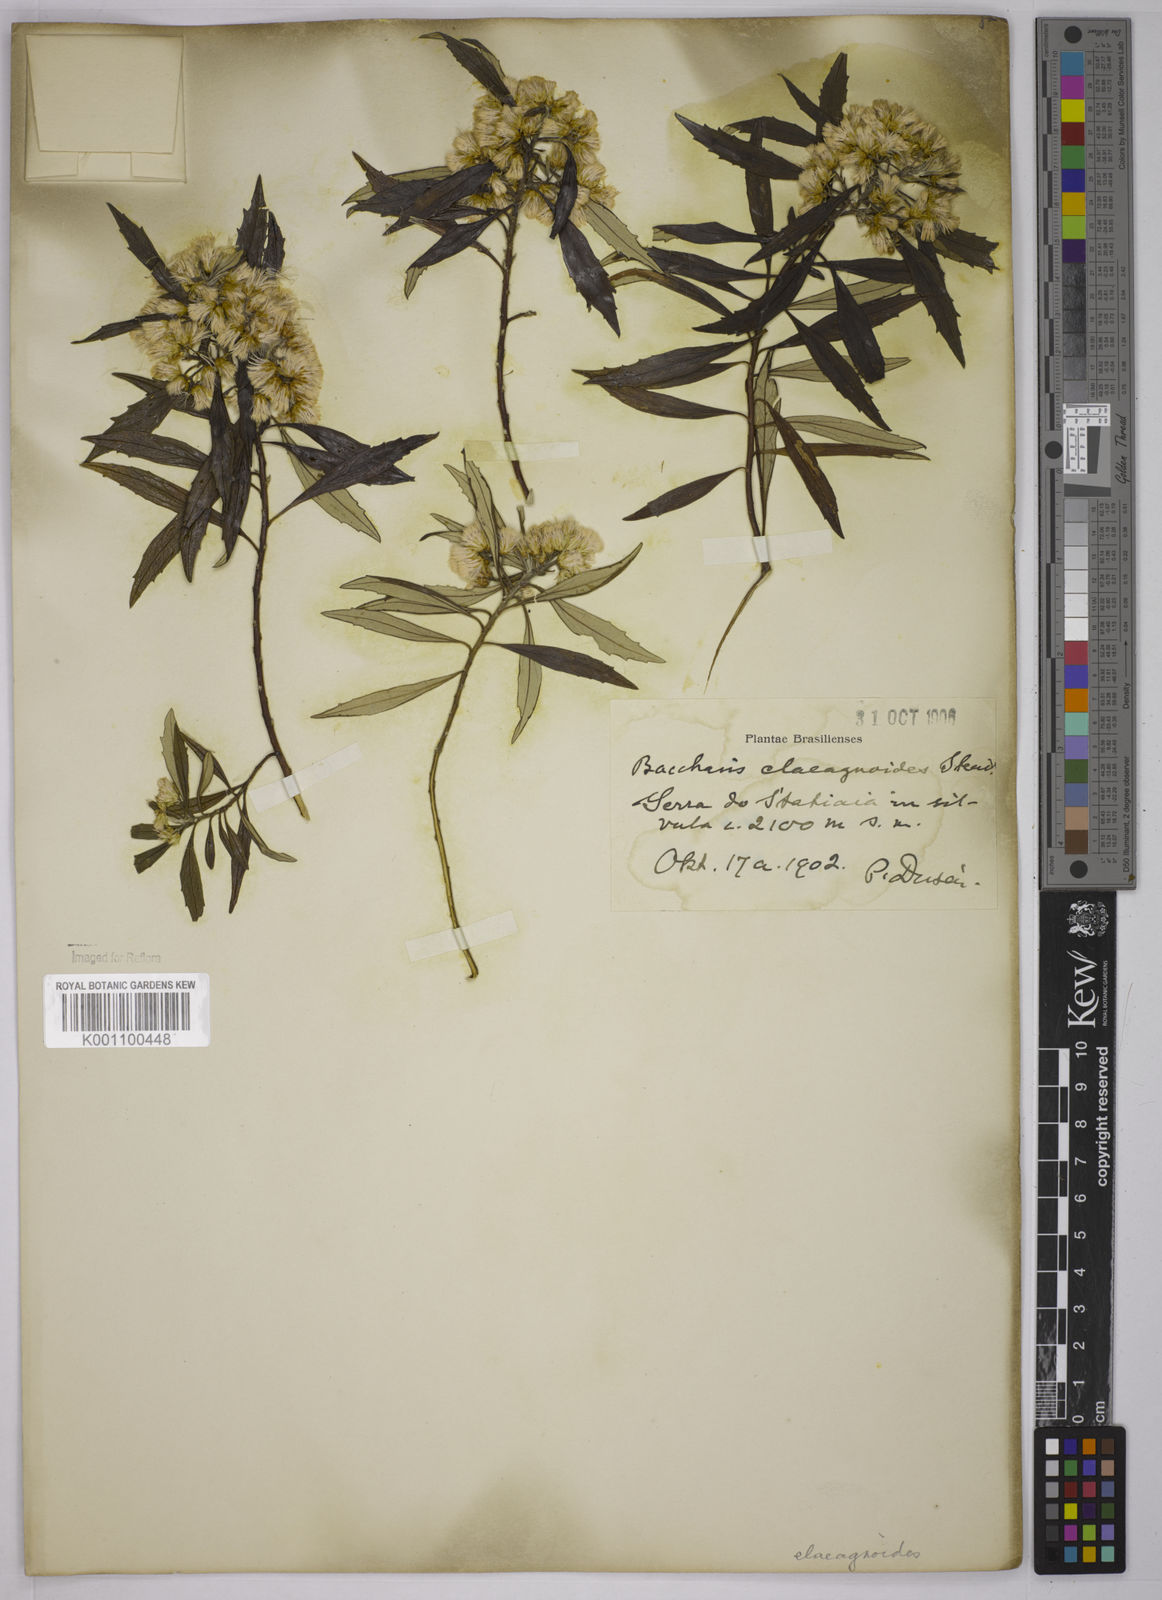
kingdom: Plantae
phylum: Tracheophyta
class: Magnoliopsida
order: Asterales
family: Asteraceae
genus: Baccharis
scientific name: Baccharis
